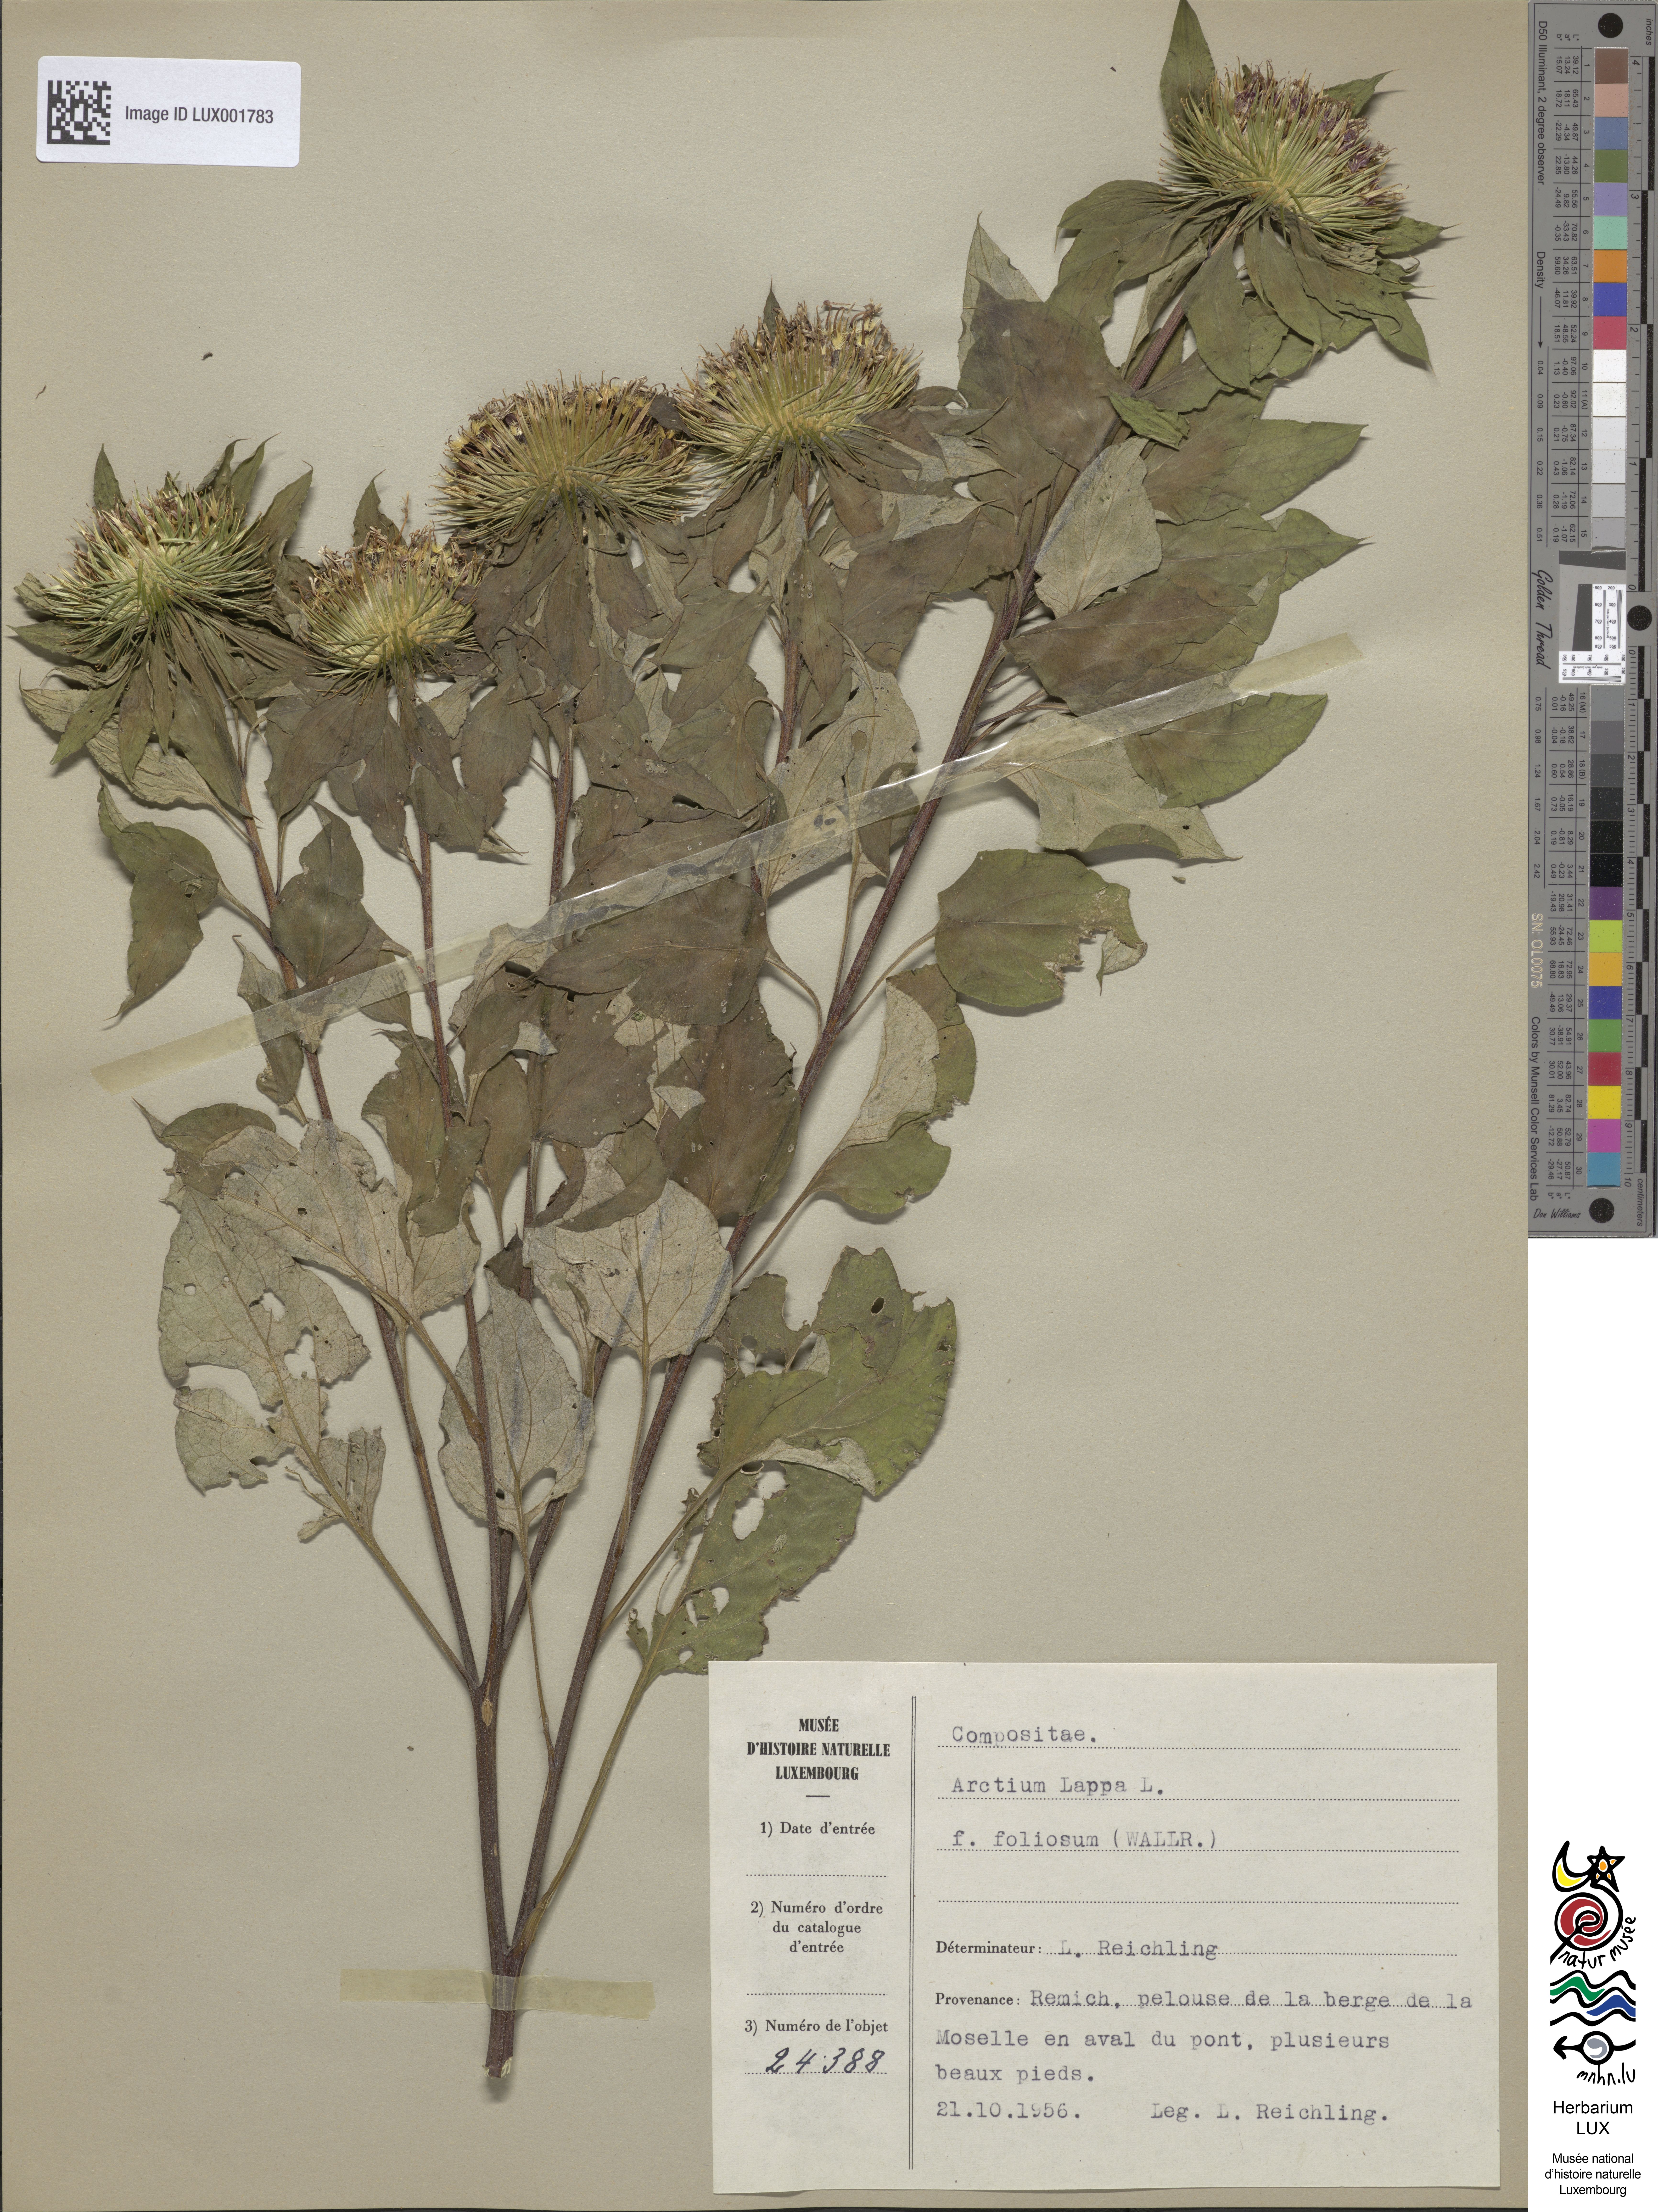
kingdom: Plantae
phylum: Tracheophyta
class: Magnoliopsida
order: Asterales
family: Asteraceae
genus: Arctium
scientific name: Arctium lappa
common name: Greater burdock
